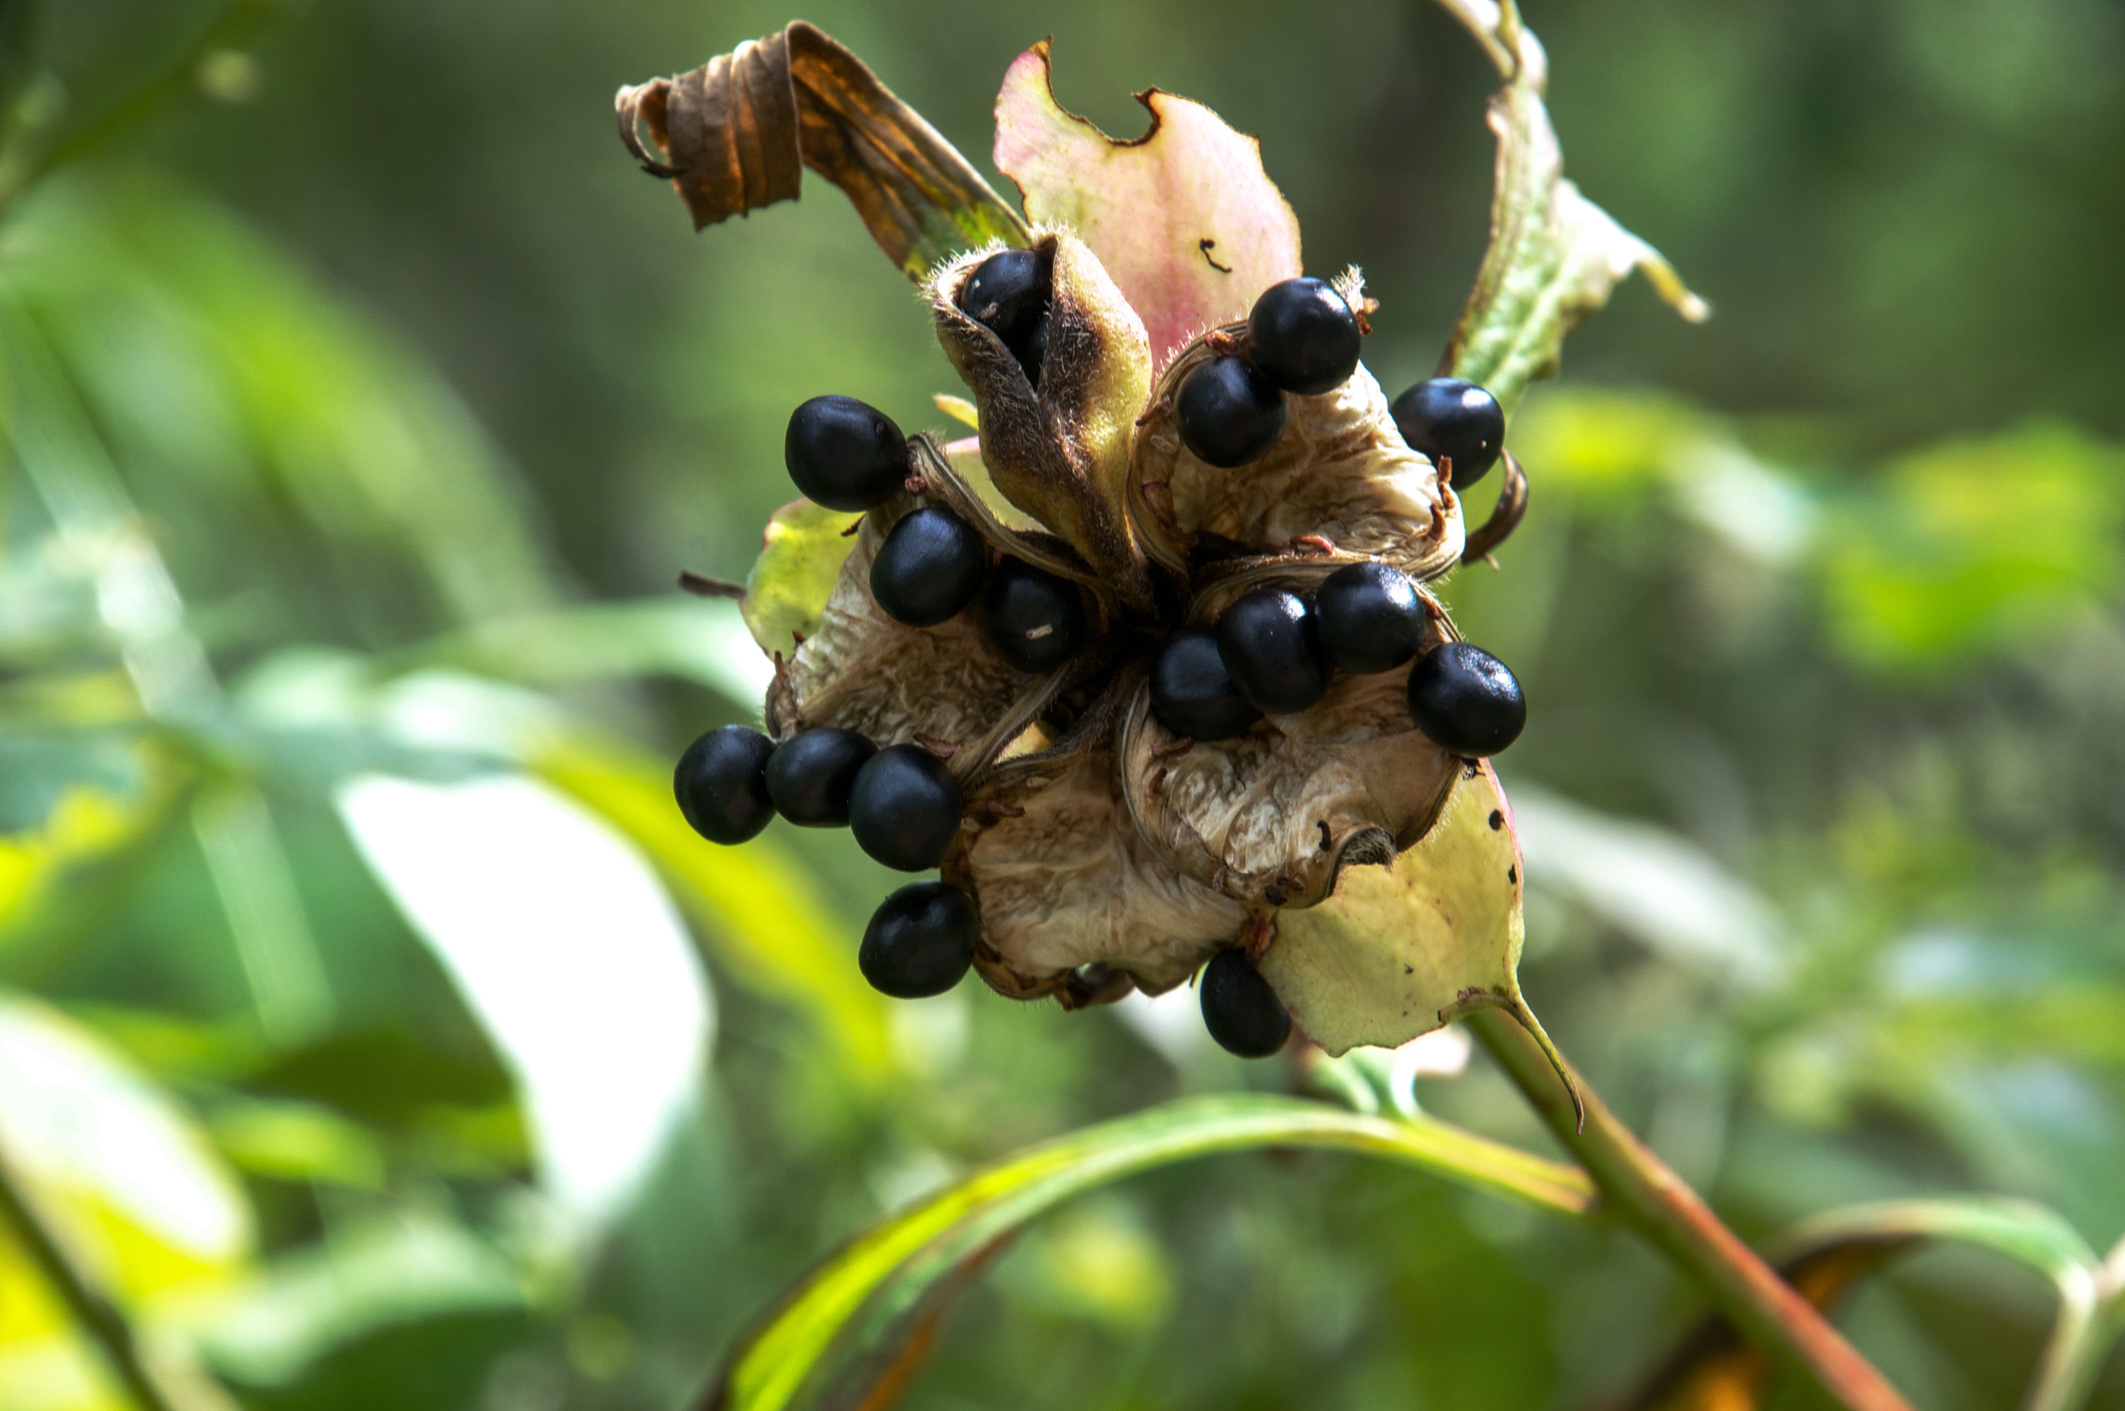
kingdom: Plantae
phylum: Tracheophyta
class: Magnoliopsida
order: Saxifragales
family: Paeoniaceae
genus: Paeonia
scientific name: Paeonia anomala
